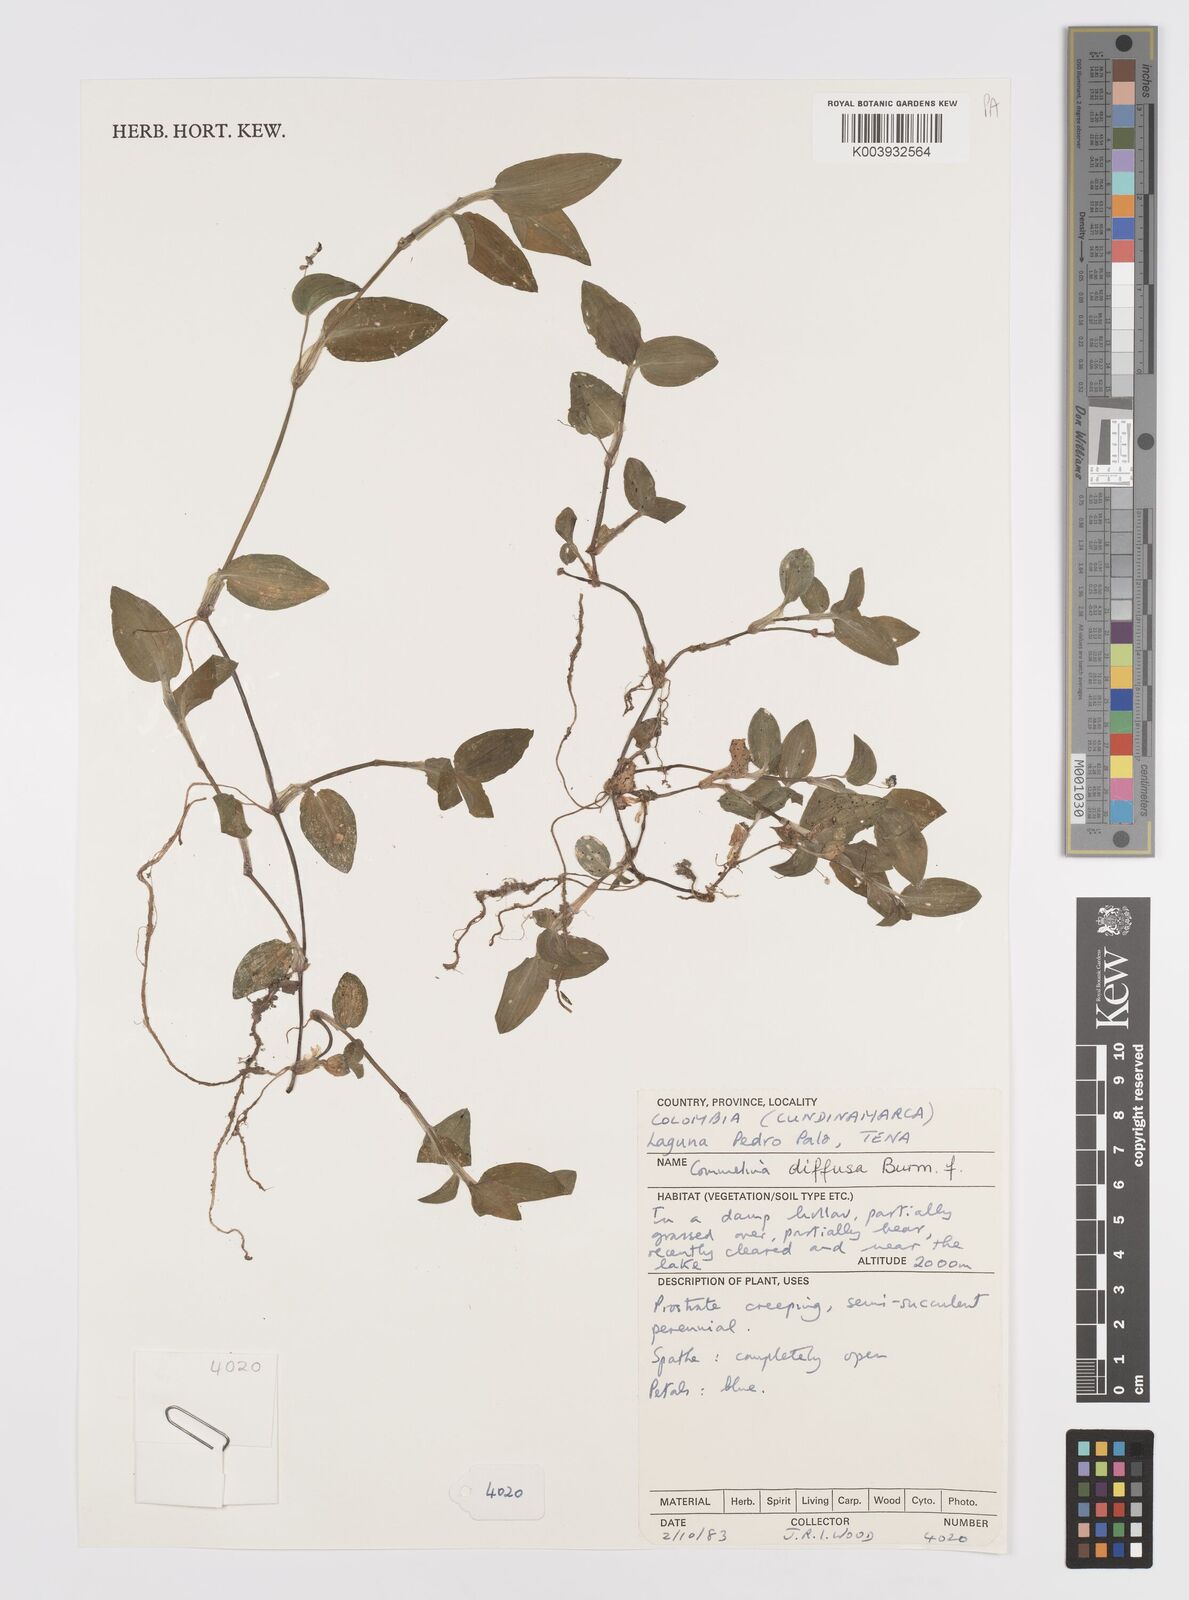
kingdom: Plantae
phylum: Tracheophyta
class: Liliopsida
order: Commelinales
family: Commelinaceae
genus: Commelina
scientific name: Commelina diffusa
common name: Climbing dayflower
